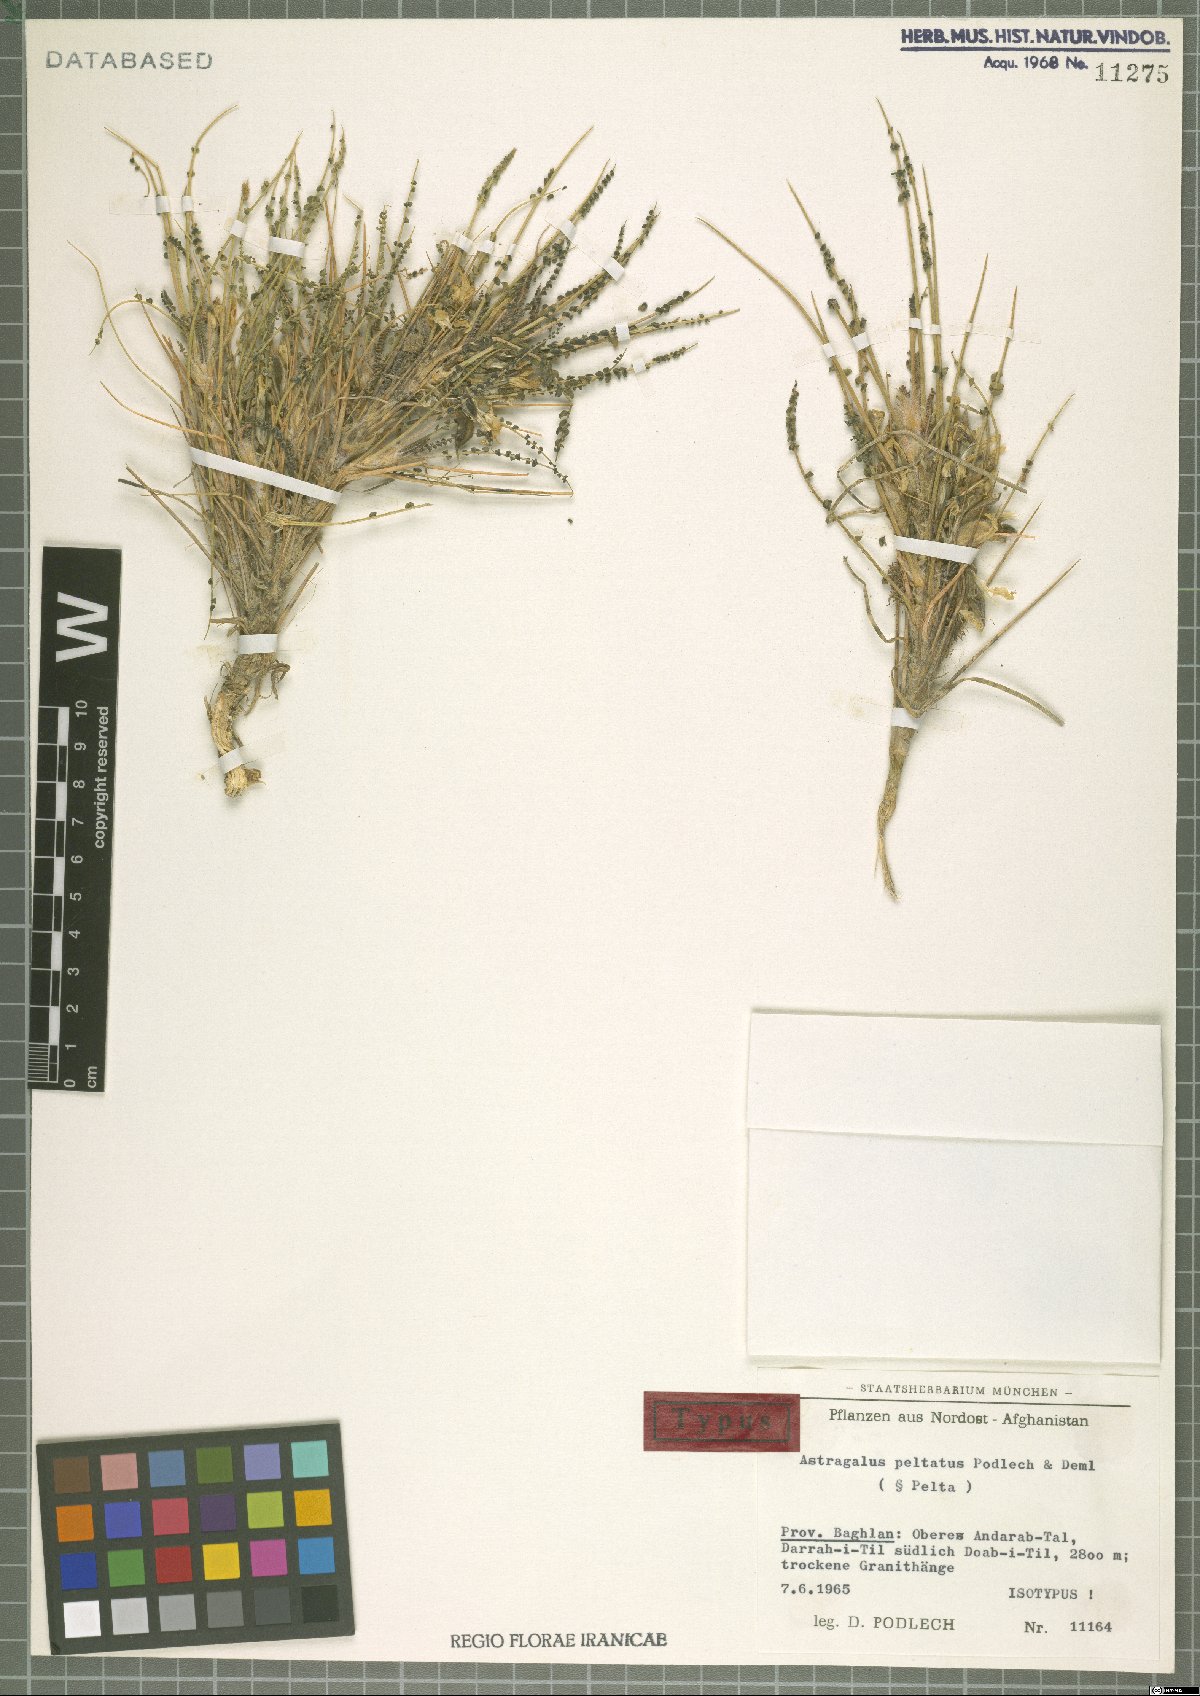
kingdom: Plantae
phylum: Tracheophyta
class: Magnoliopsida
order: Fabales
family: Fabaceae
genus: Astragalus
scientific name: Astragalus peltatus
